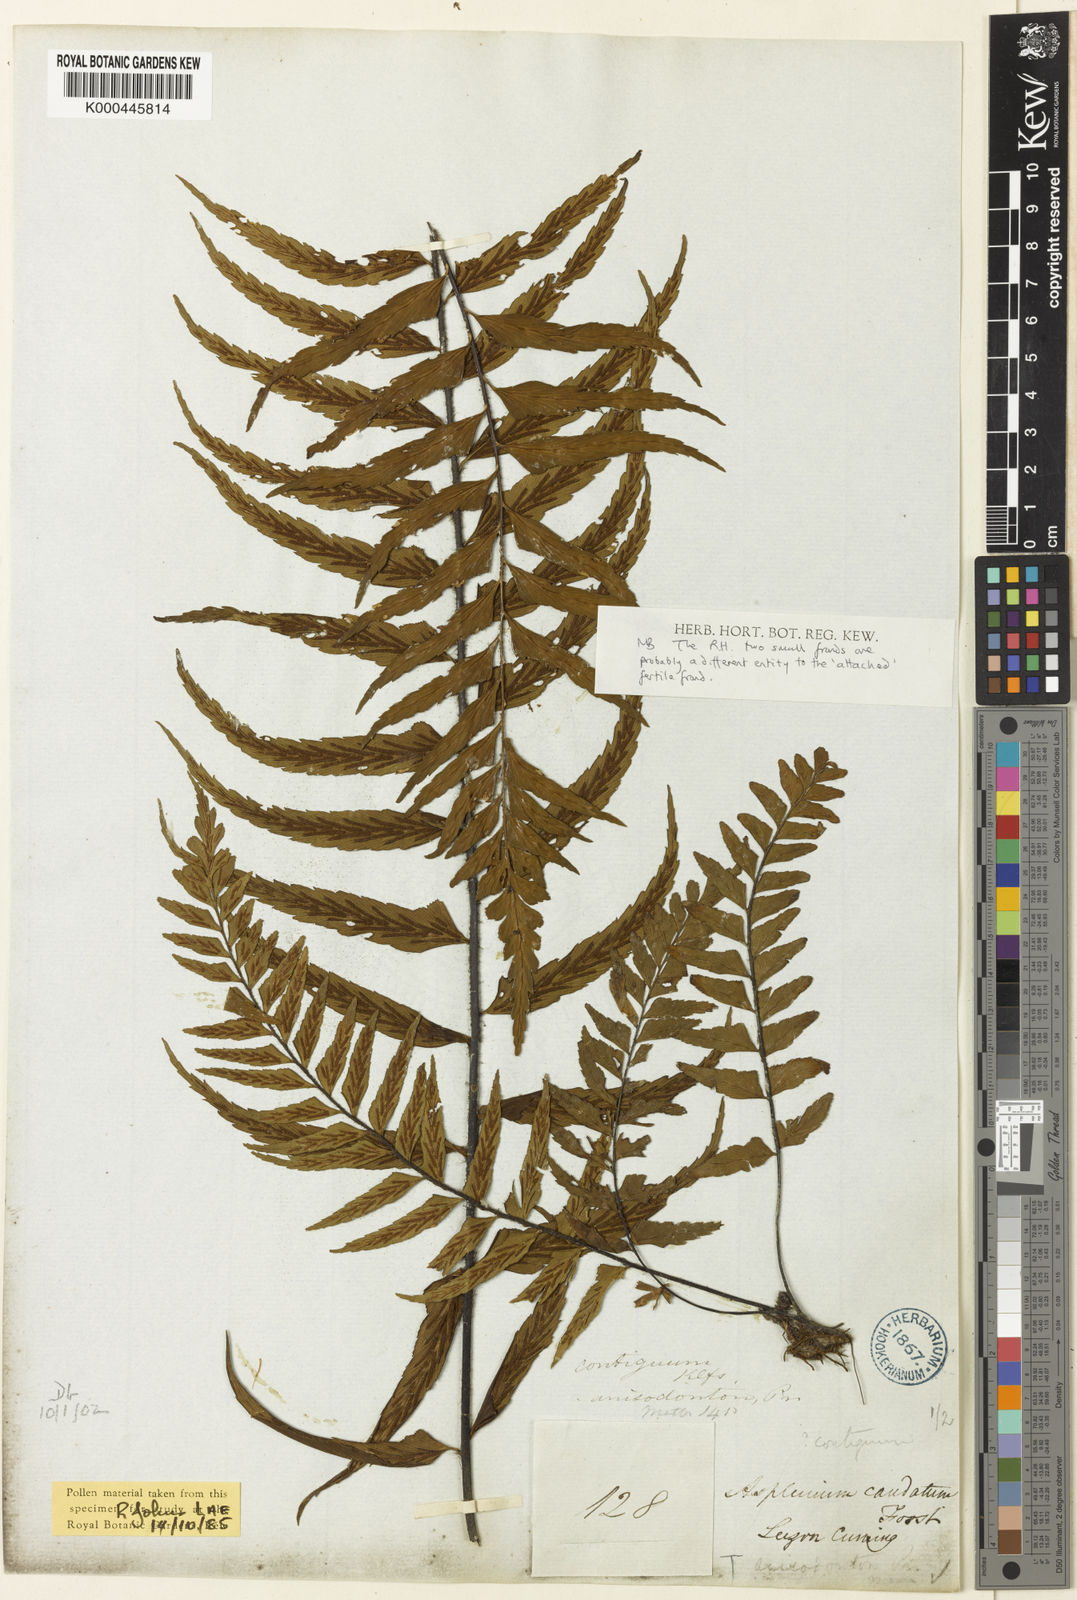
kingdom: Plantae
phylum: Tracheophyta
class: Polypodiopsida
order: Polypodiales
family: Aspleniaceae
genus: Asplenium
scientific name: Asplenium longissimum
